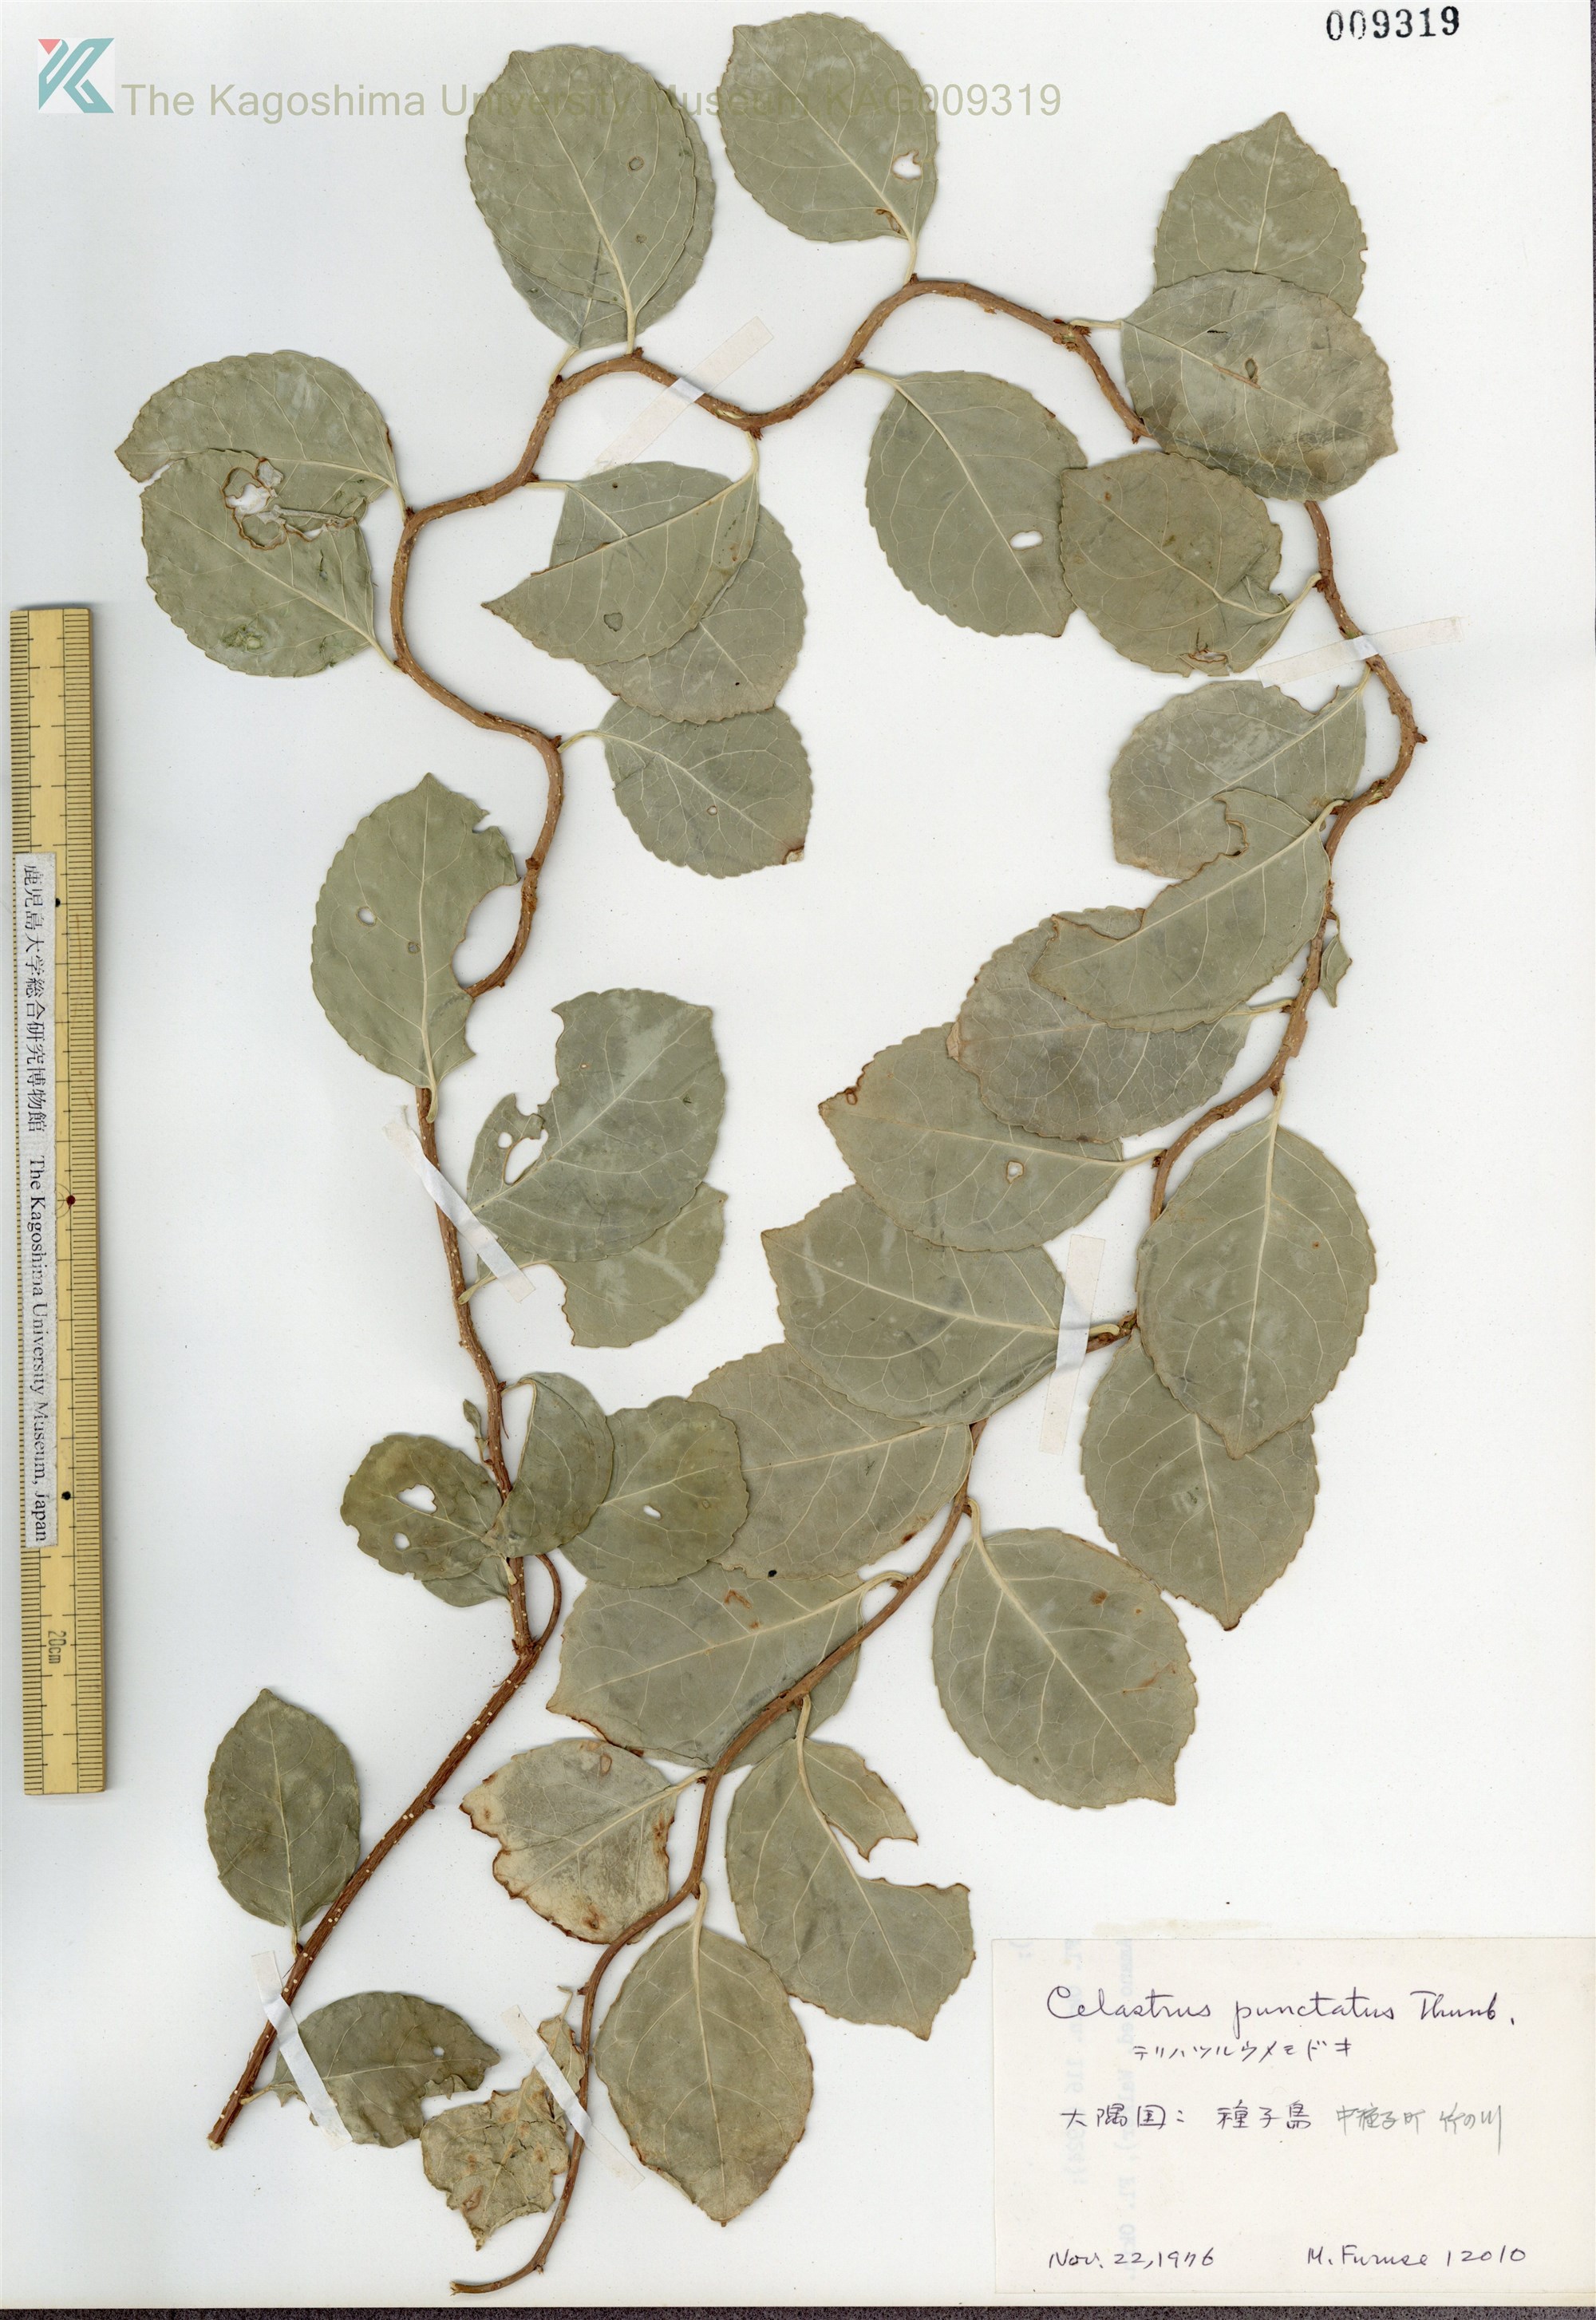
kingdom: Plantae
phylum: Tracheophyta
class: Magnoliopsida
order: Celastrales
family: Celastraceae
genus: Celastrus
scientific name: Celastrus punctatus
